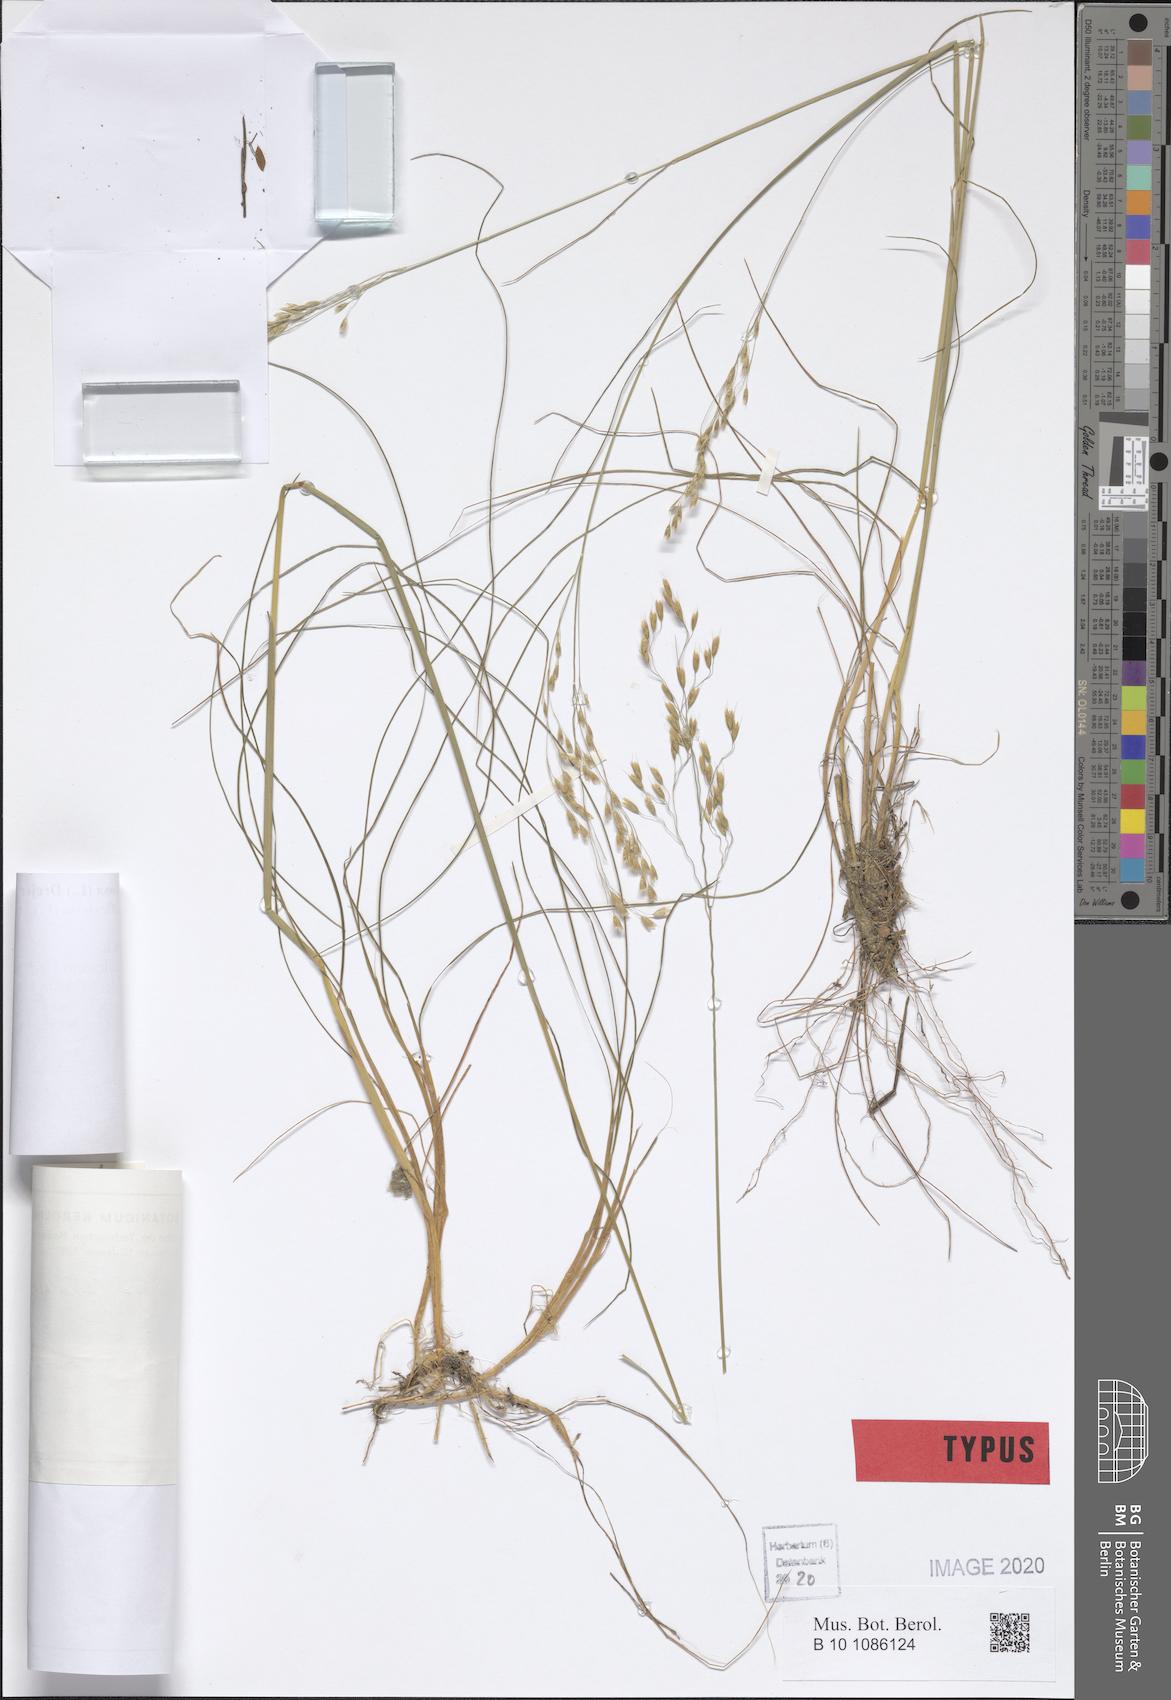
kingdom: Plantae
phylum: Tracheophyta
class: Liliopsida
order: Poales
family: Poaceae
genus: Avenella
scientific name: Avenella flexuosa
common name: Wavy hairgrass
